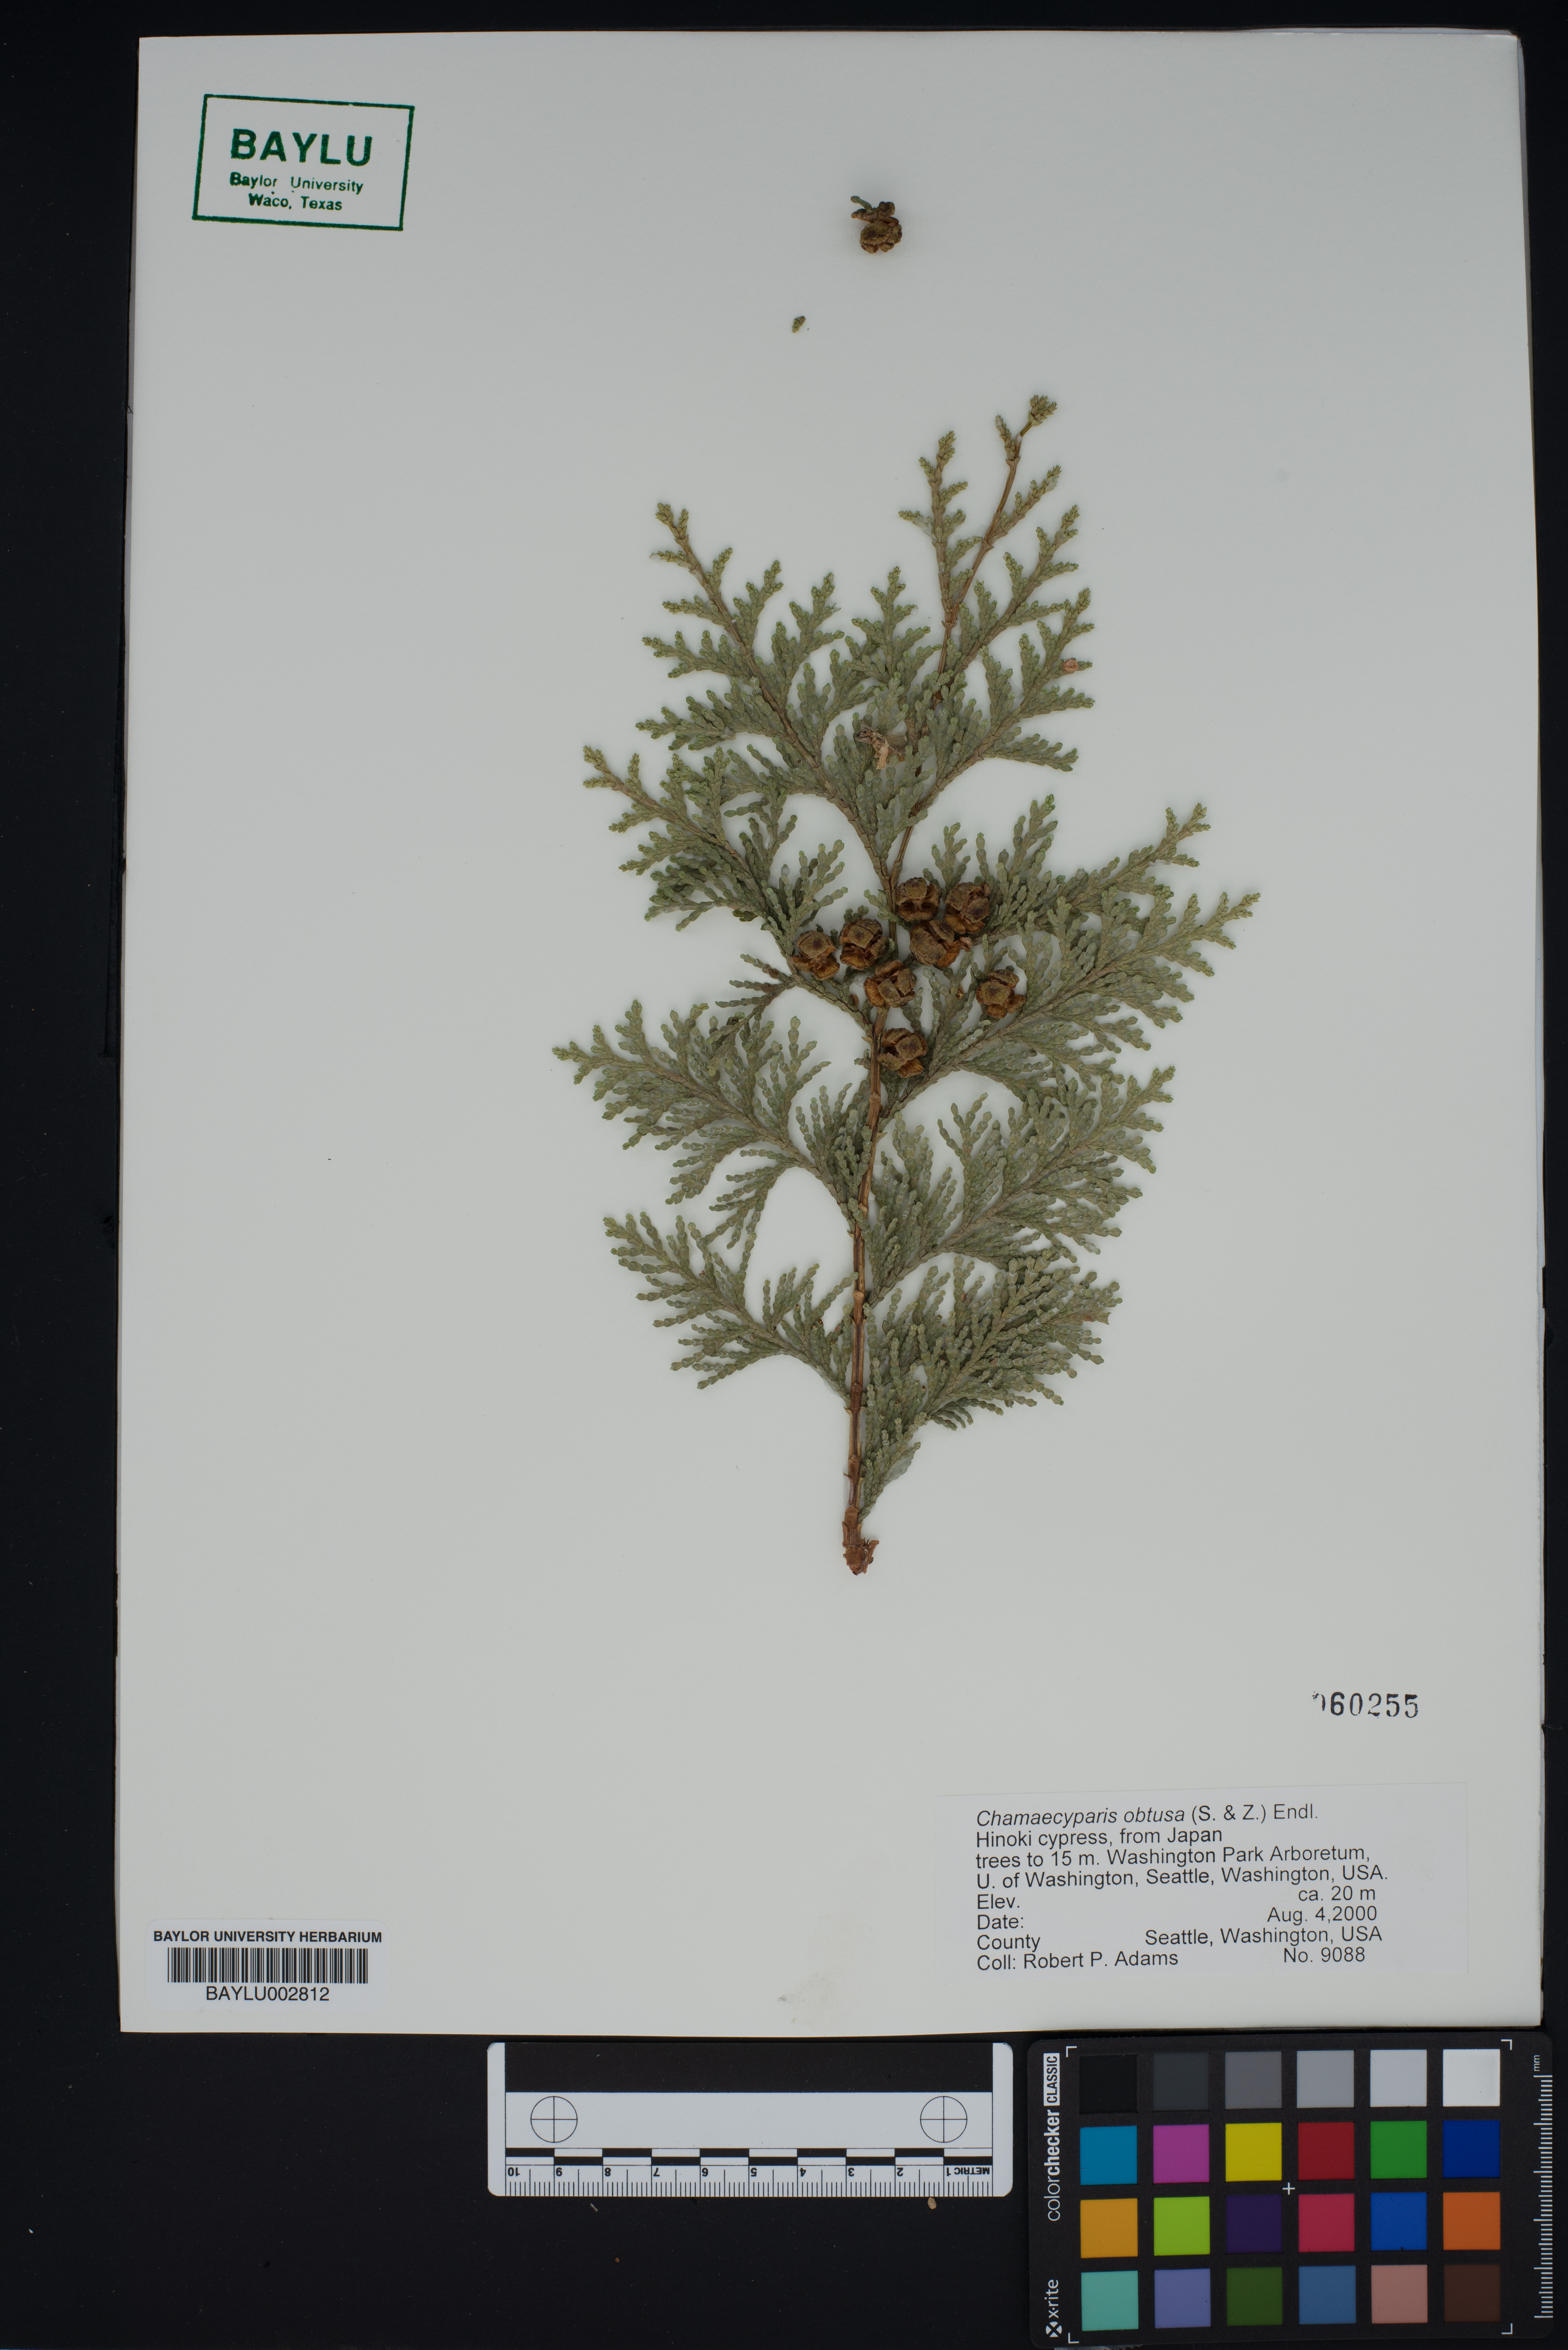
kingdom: Plantae
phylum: Tracheophyta
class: Pinopsida
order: Pinales
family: Cupressaceae
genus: Chamaecyparis
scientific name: Chamaecyparis obtusa
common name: Hinoki false cypress
